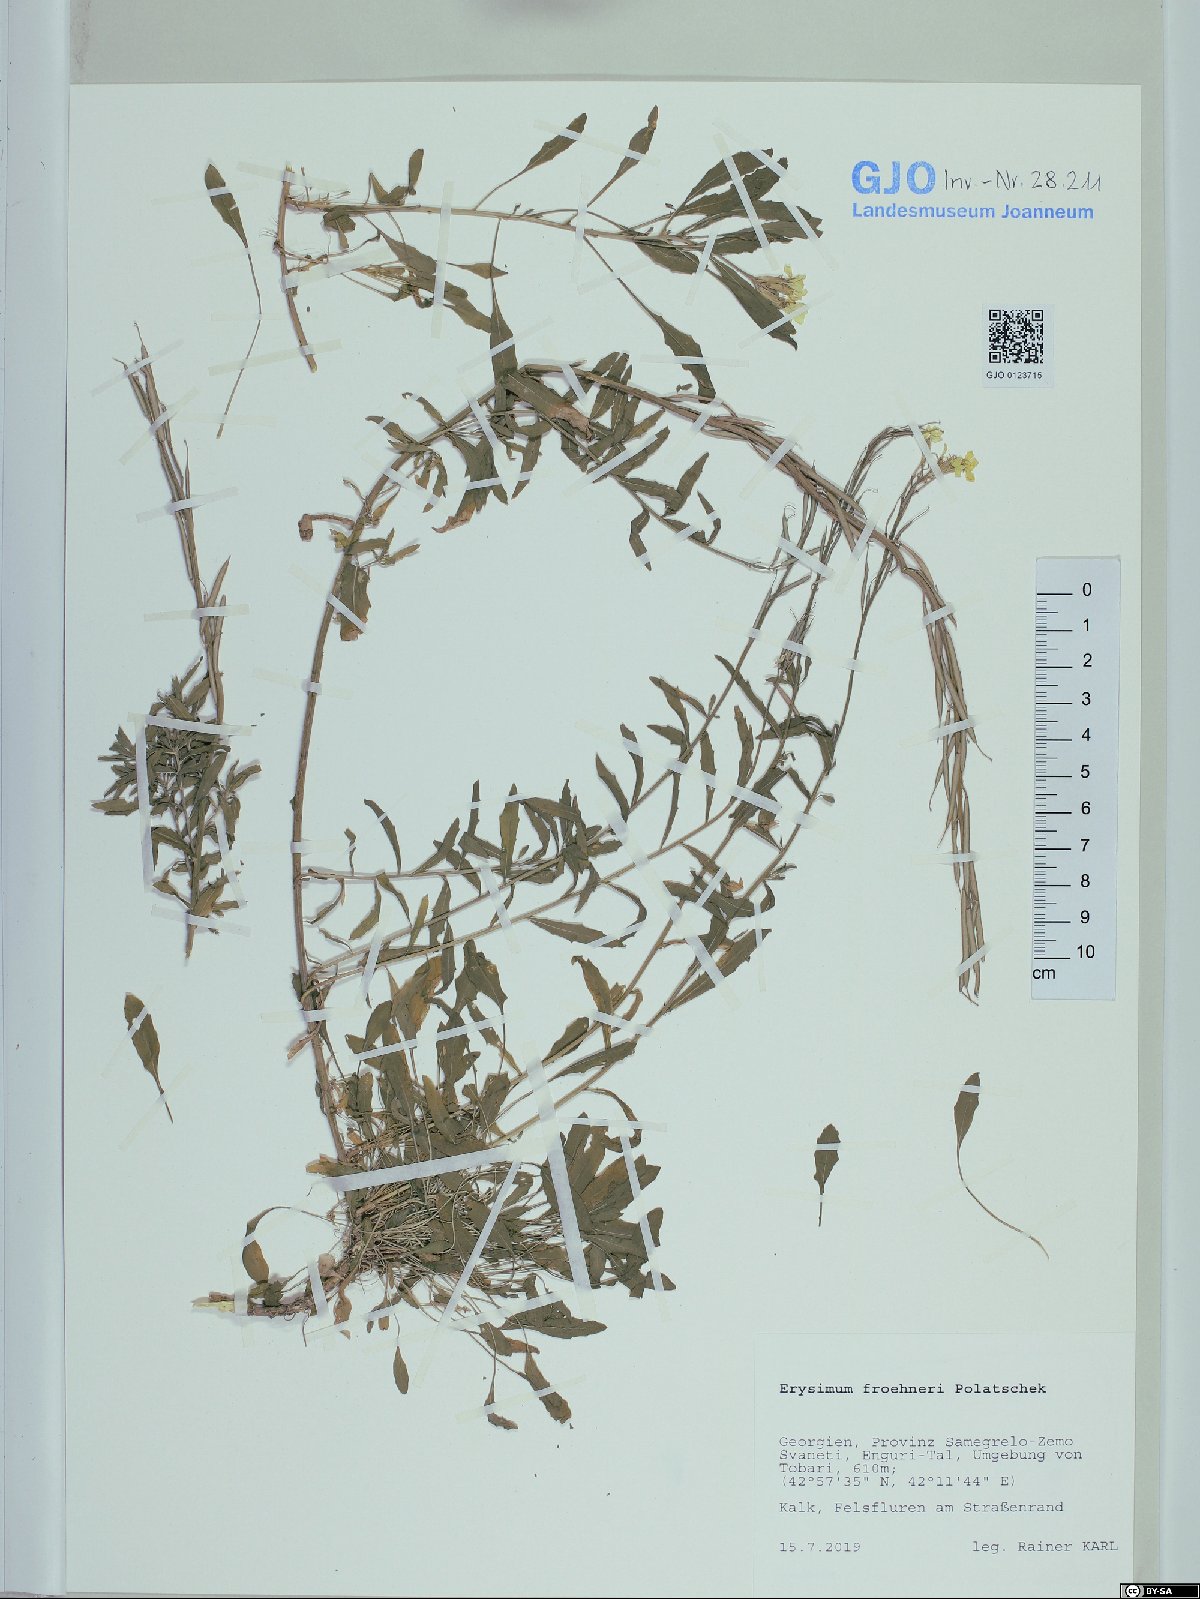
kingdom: Plantae
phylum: Tracheophyta
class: Magnoliopsida
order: Brassicales
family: Brassicaceae
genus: Erysimum
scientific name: Erysimum froehneri
